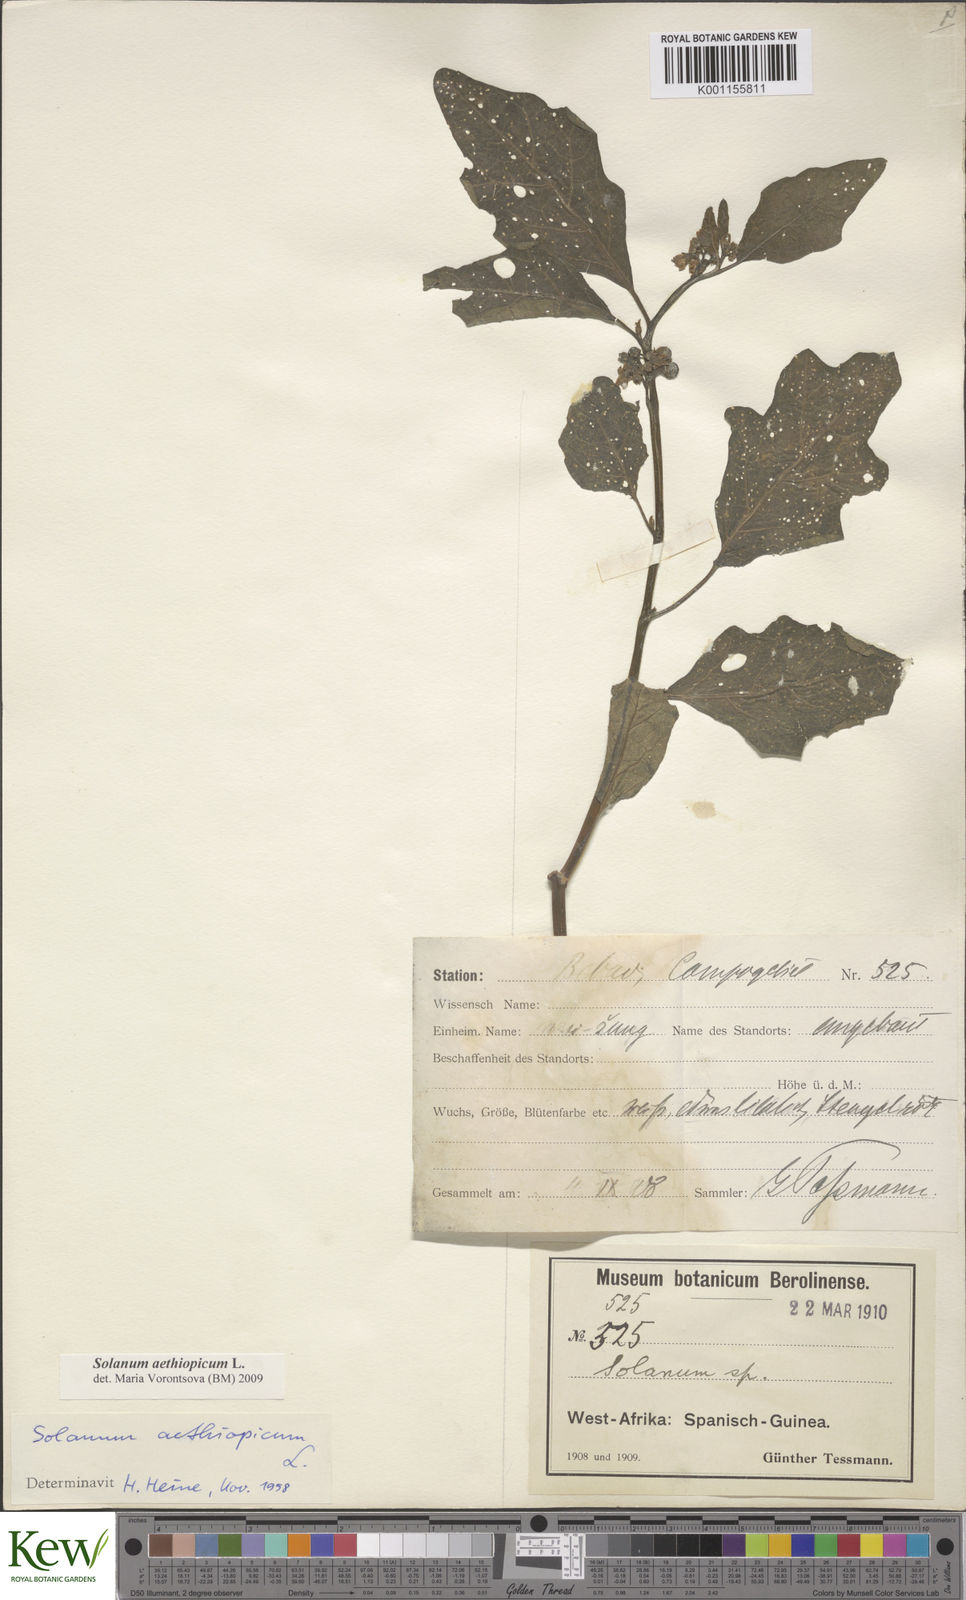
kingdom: Plantae
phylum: Tracheophyta
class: Magnoliopsida
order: Solanales
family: Solanaceae
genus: Solanum
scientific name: Solanum aethiopicum
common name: Gilo
